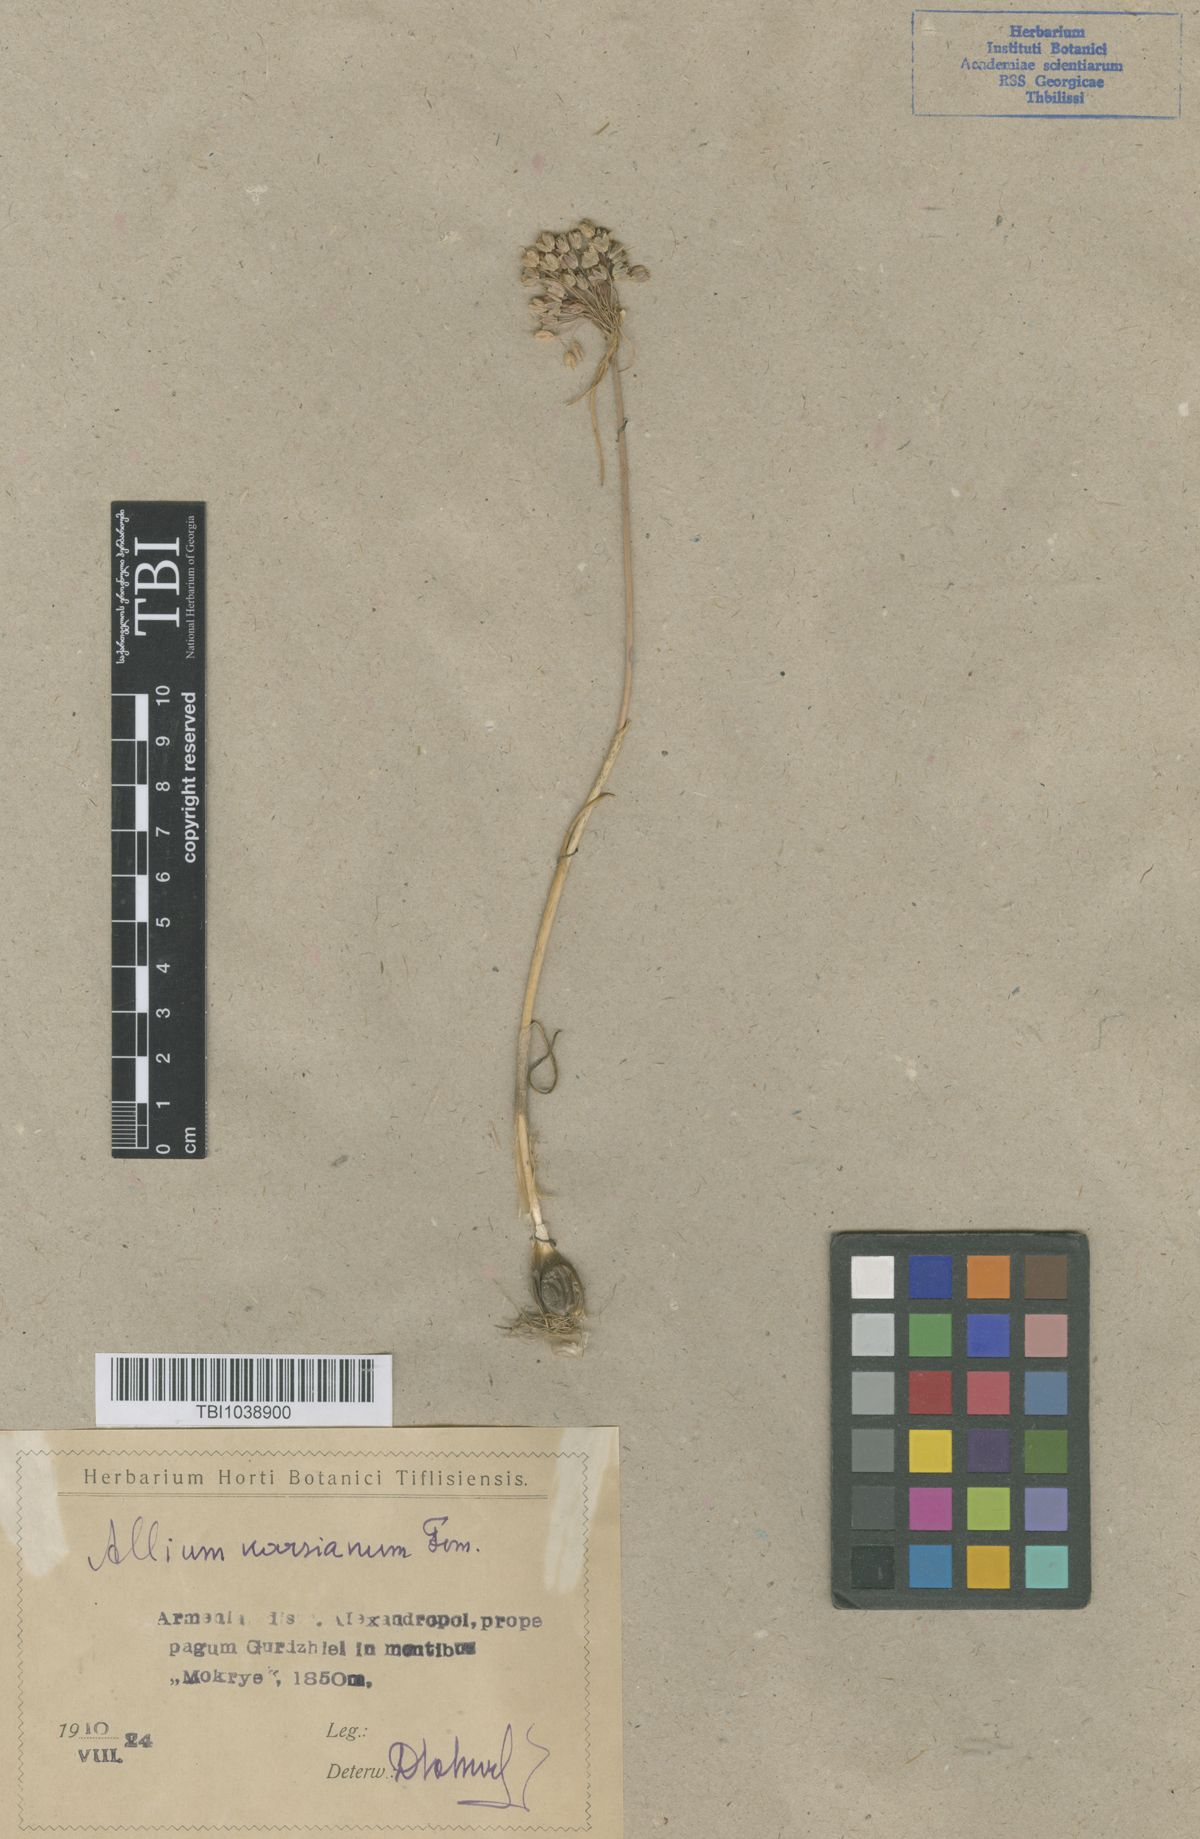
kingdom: Plantae
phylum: Tracheophyta
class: Liliopsida
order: Asparagales
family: Amaryllidaceae
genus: Allium
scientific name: Allium paniculatum
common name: Pale garlic
